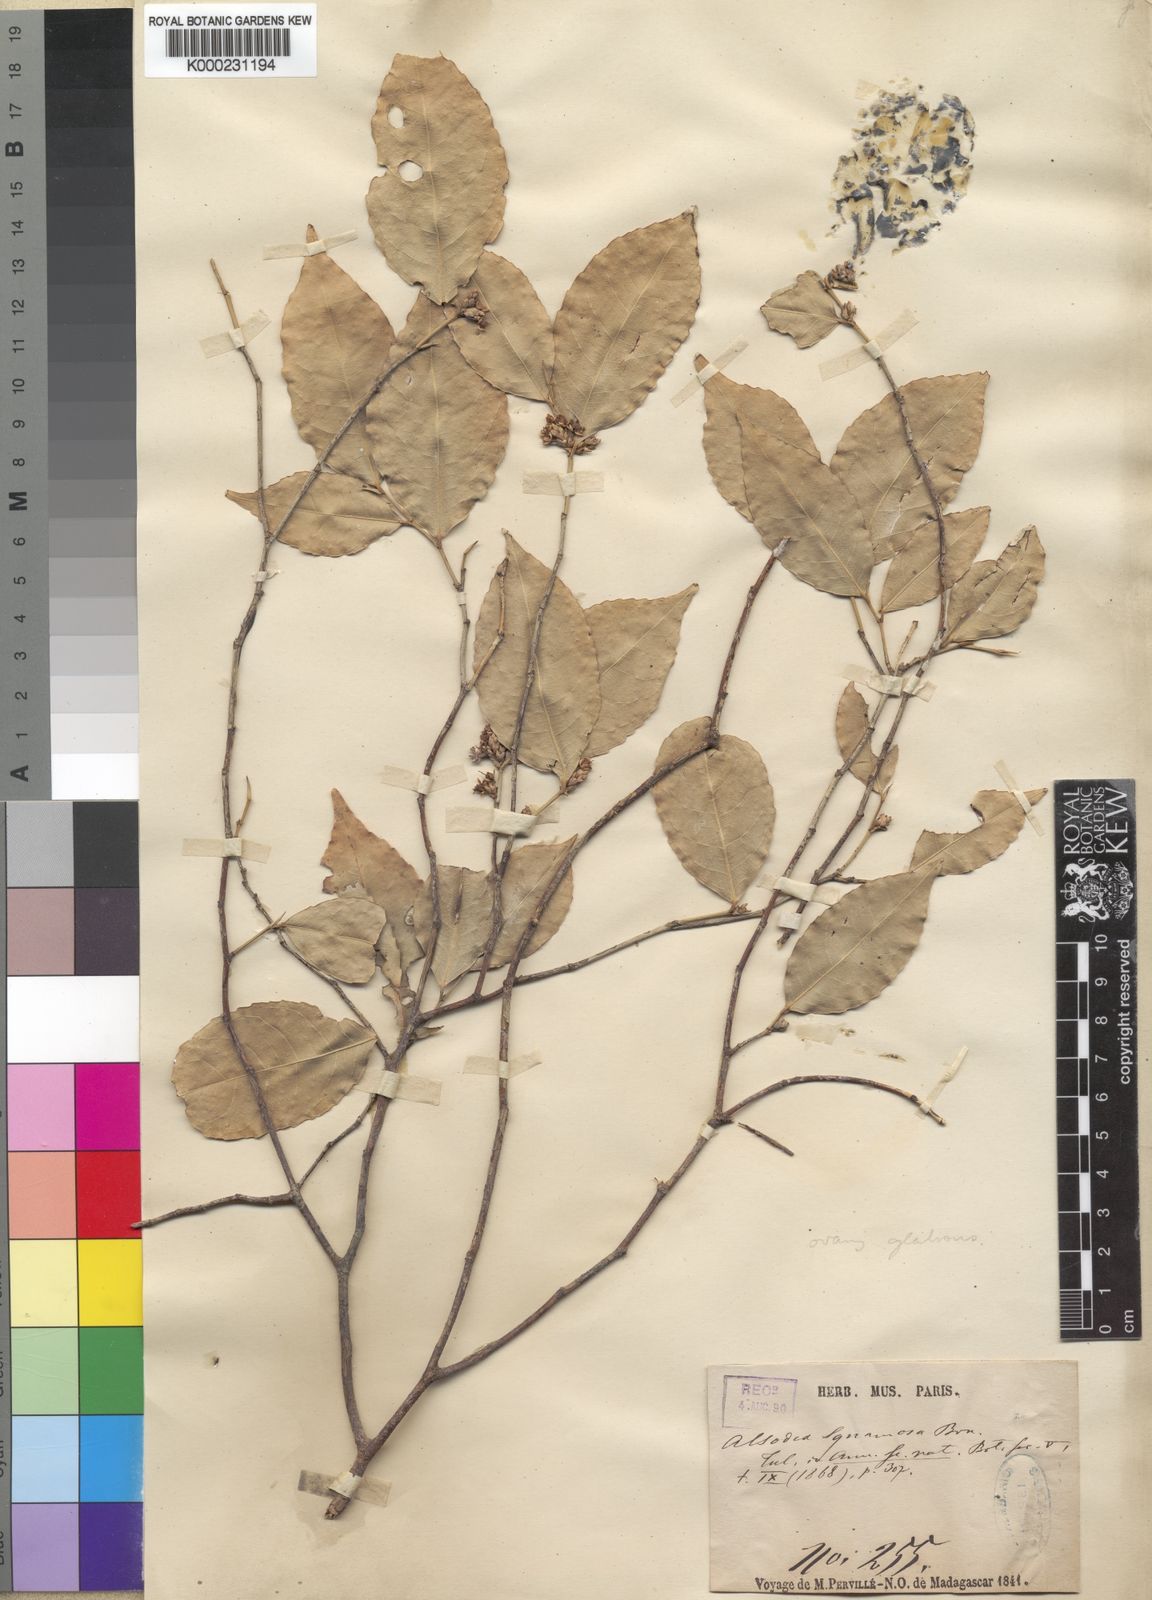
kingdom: Plantae
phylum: Tracheophyta
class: Magnoliopsida
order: Malpighiales
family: Violaceae
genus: Rinorea
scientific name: Rinorea squamosa
